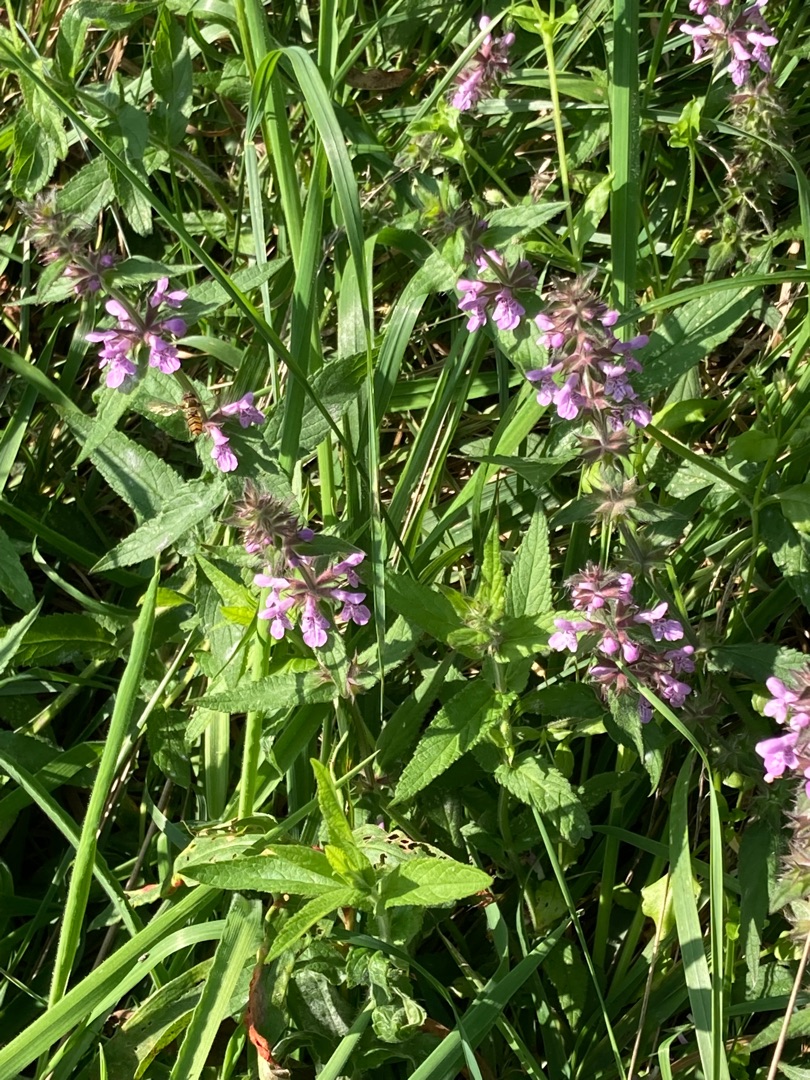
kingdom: Plantae
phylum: Tracheophyta
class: Magnoliopsida
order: Lamiales
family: Lamiaceae
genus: Stachys
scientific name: Stachys palustris
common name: Kær-galtetand
